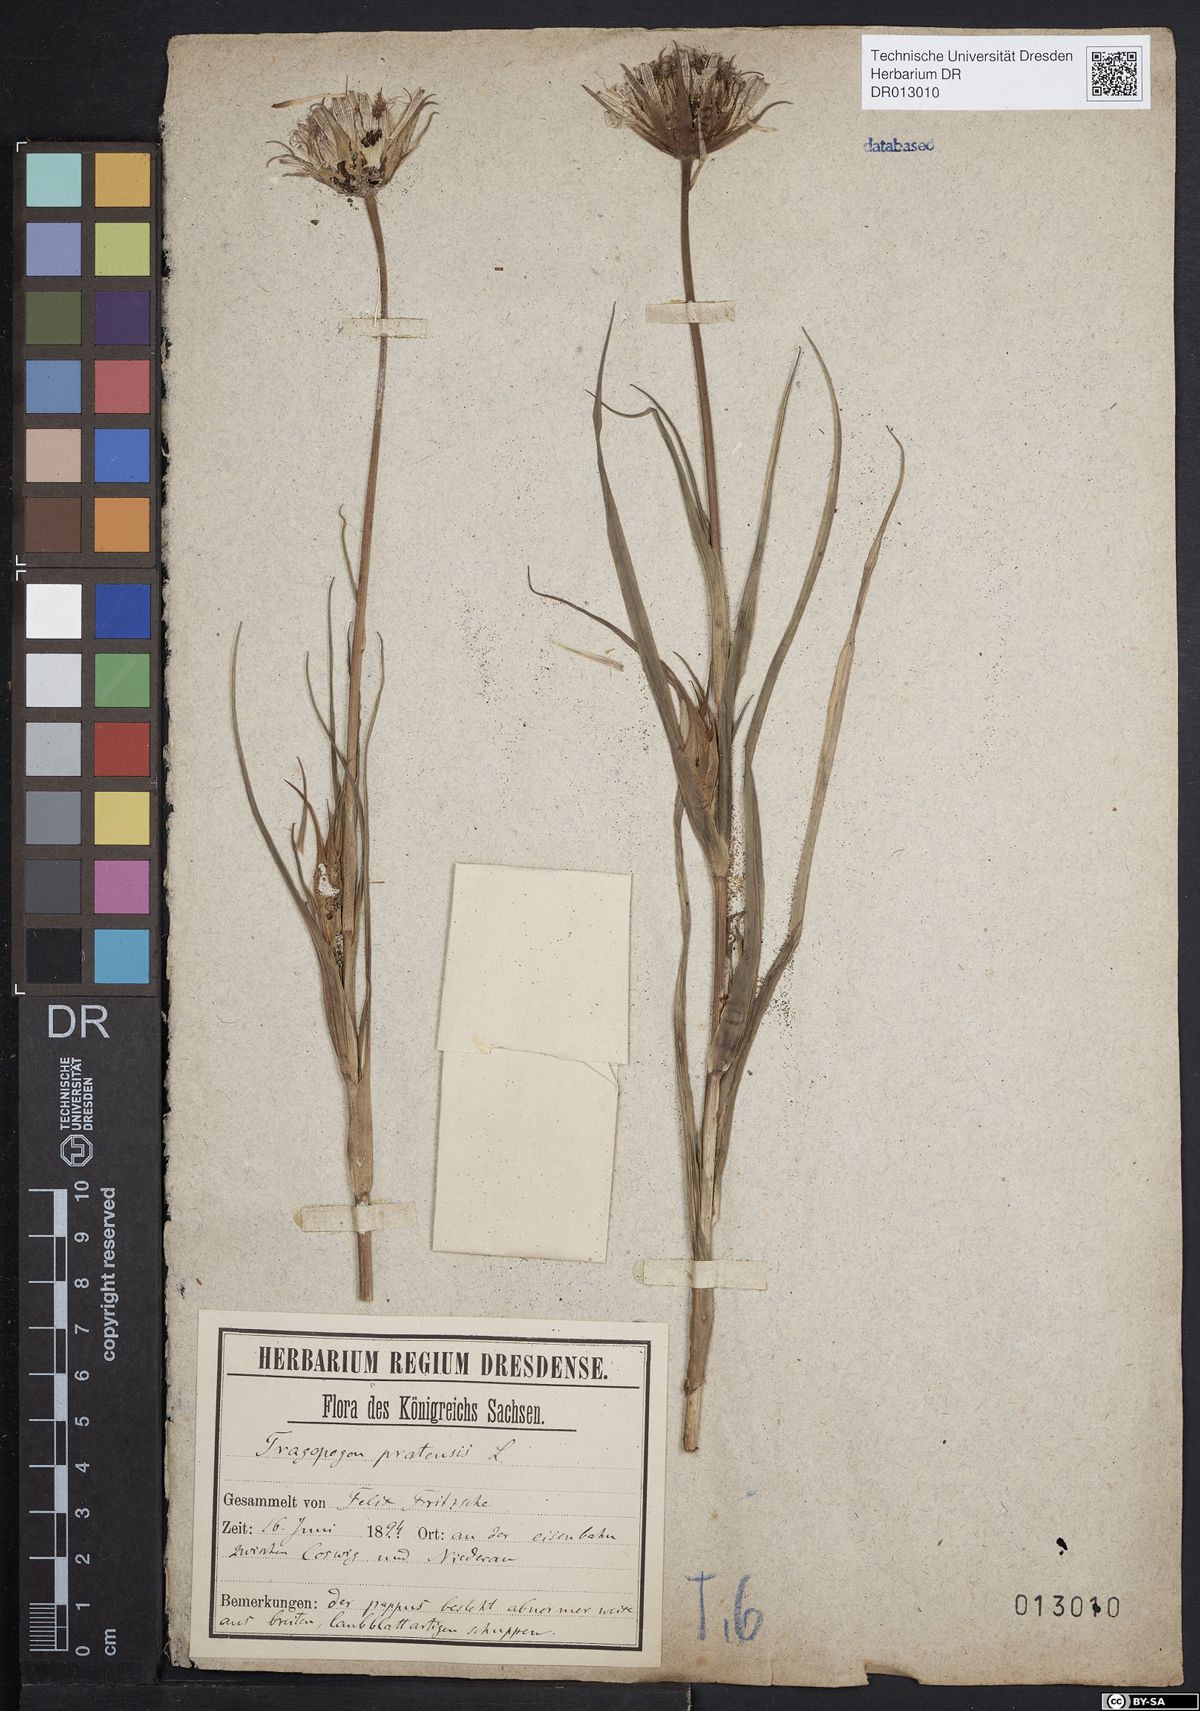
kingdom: Plantae
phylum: Tracheophyta
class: Magnoliopsida
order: Asterales
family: Asteraceae
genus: Tragopogon
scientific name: Tragopogon pratensis
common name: Goat's-beard
